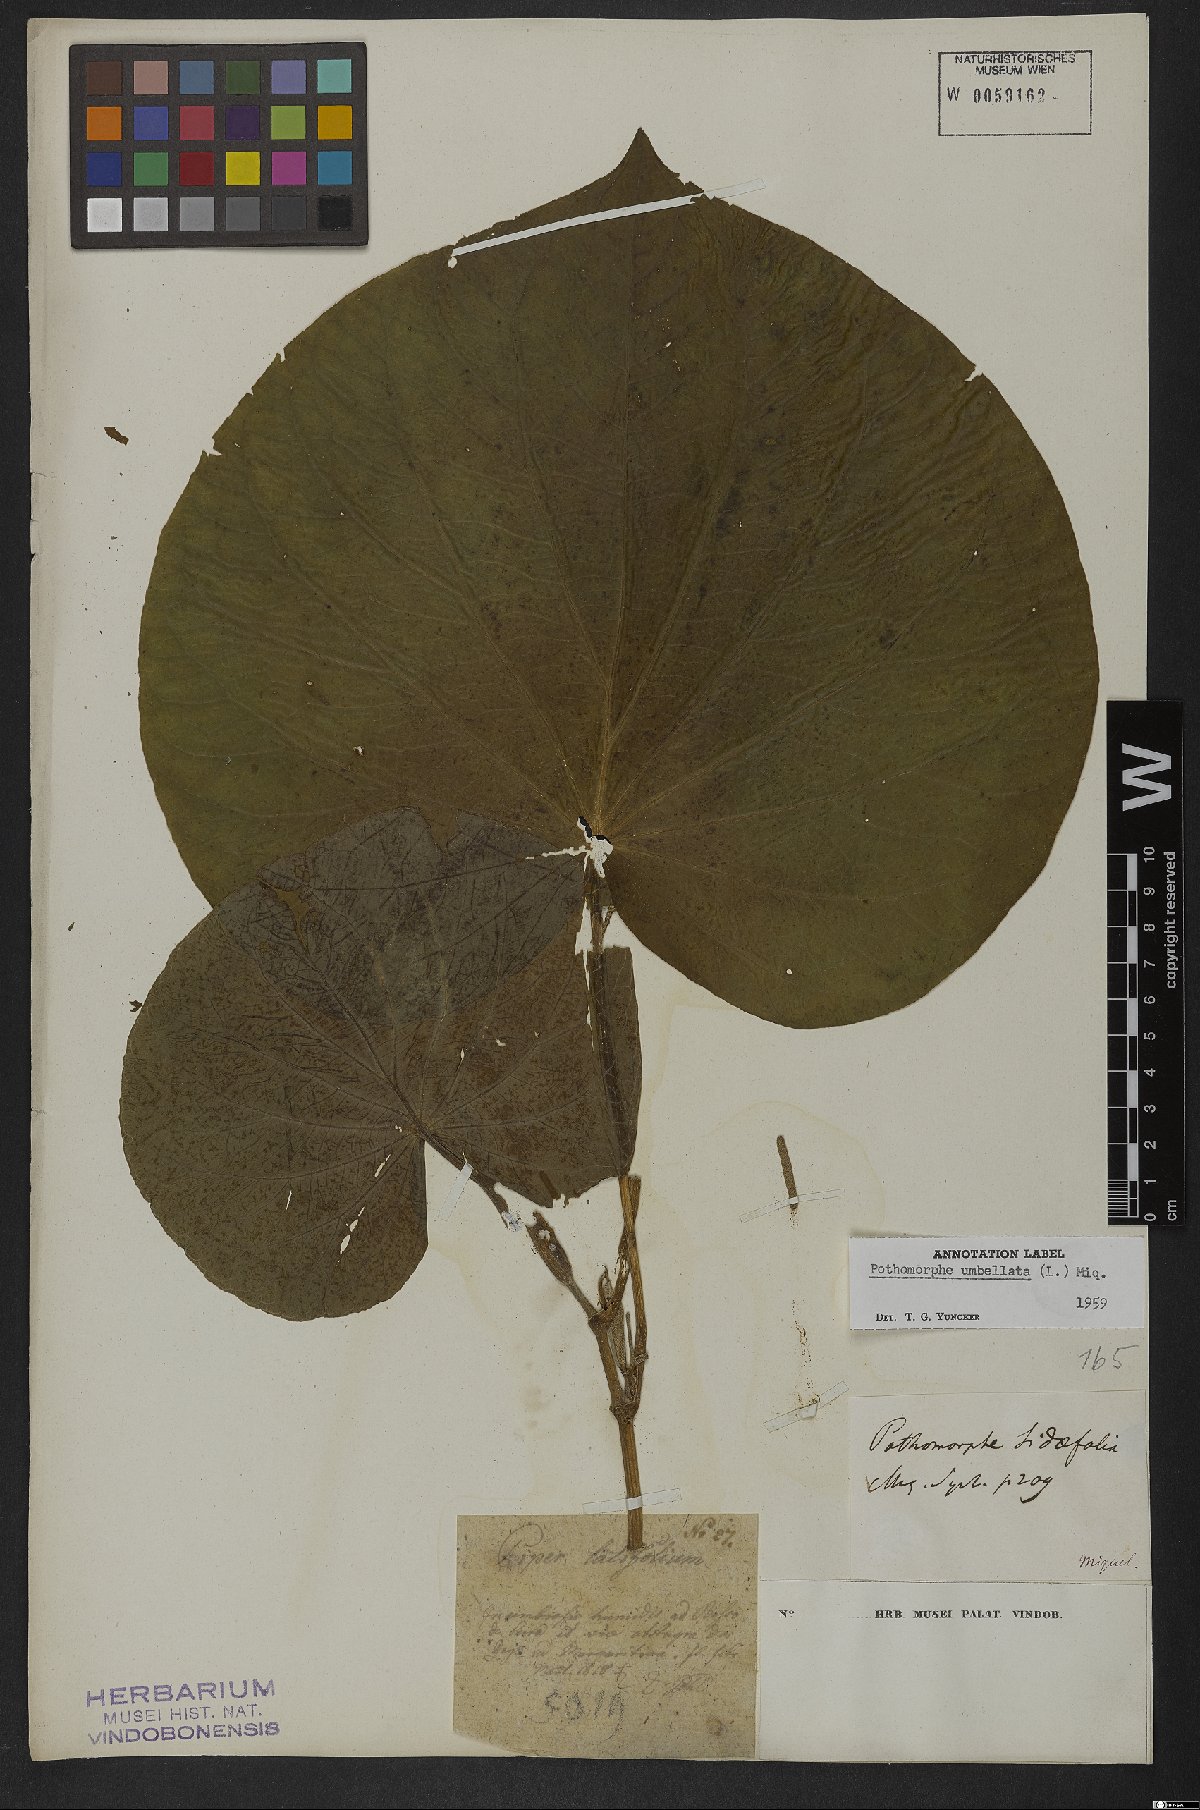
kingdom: Plantae
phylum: Tracheophyta
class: Magnoliopsida
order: Piperales
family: Piperaceae
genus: Piper
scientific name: Piper umbellatum
